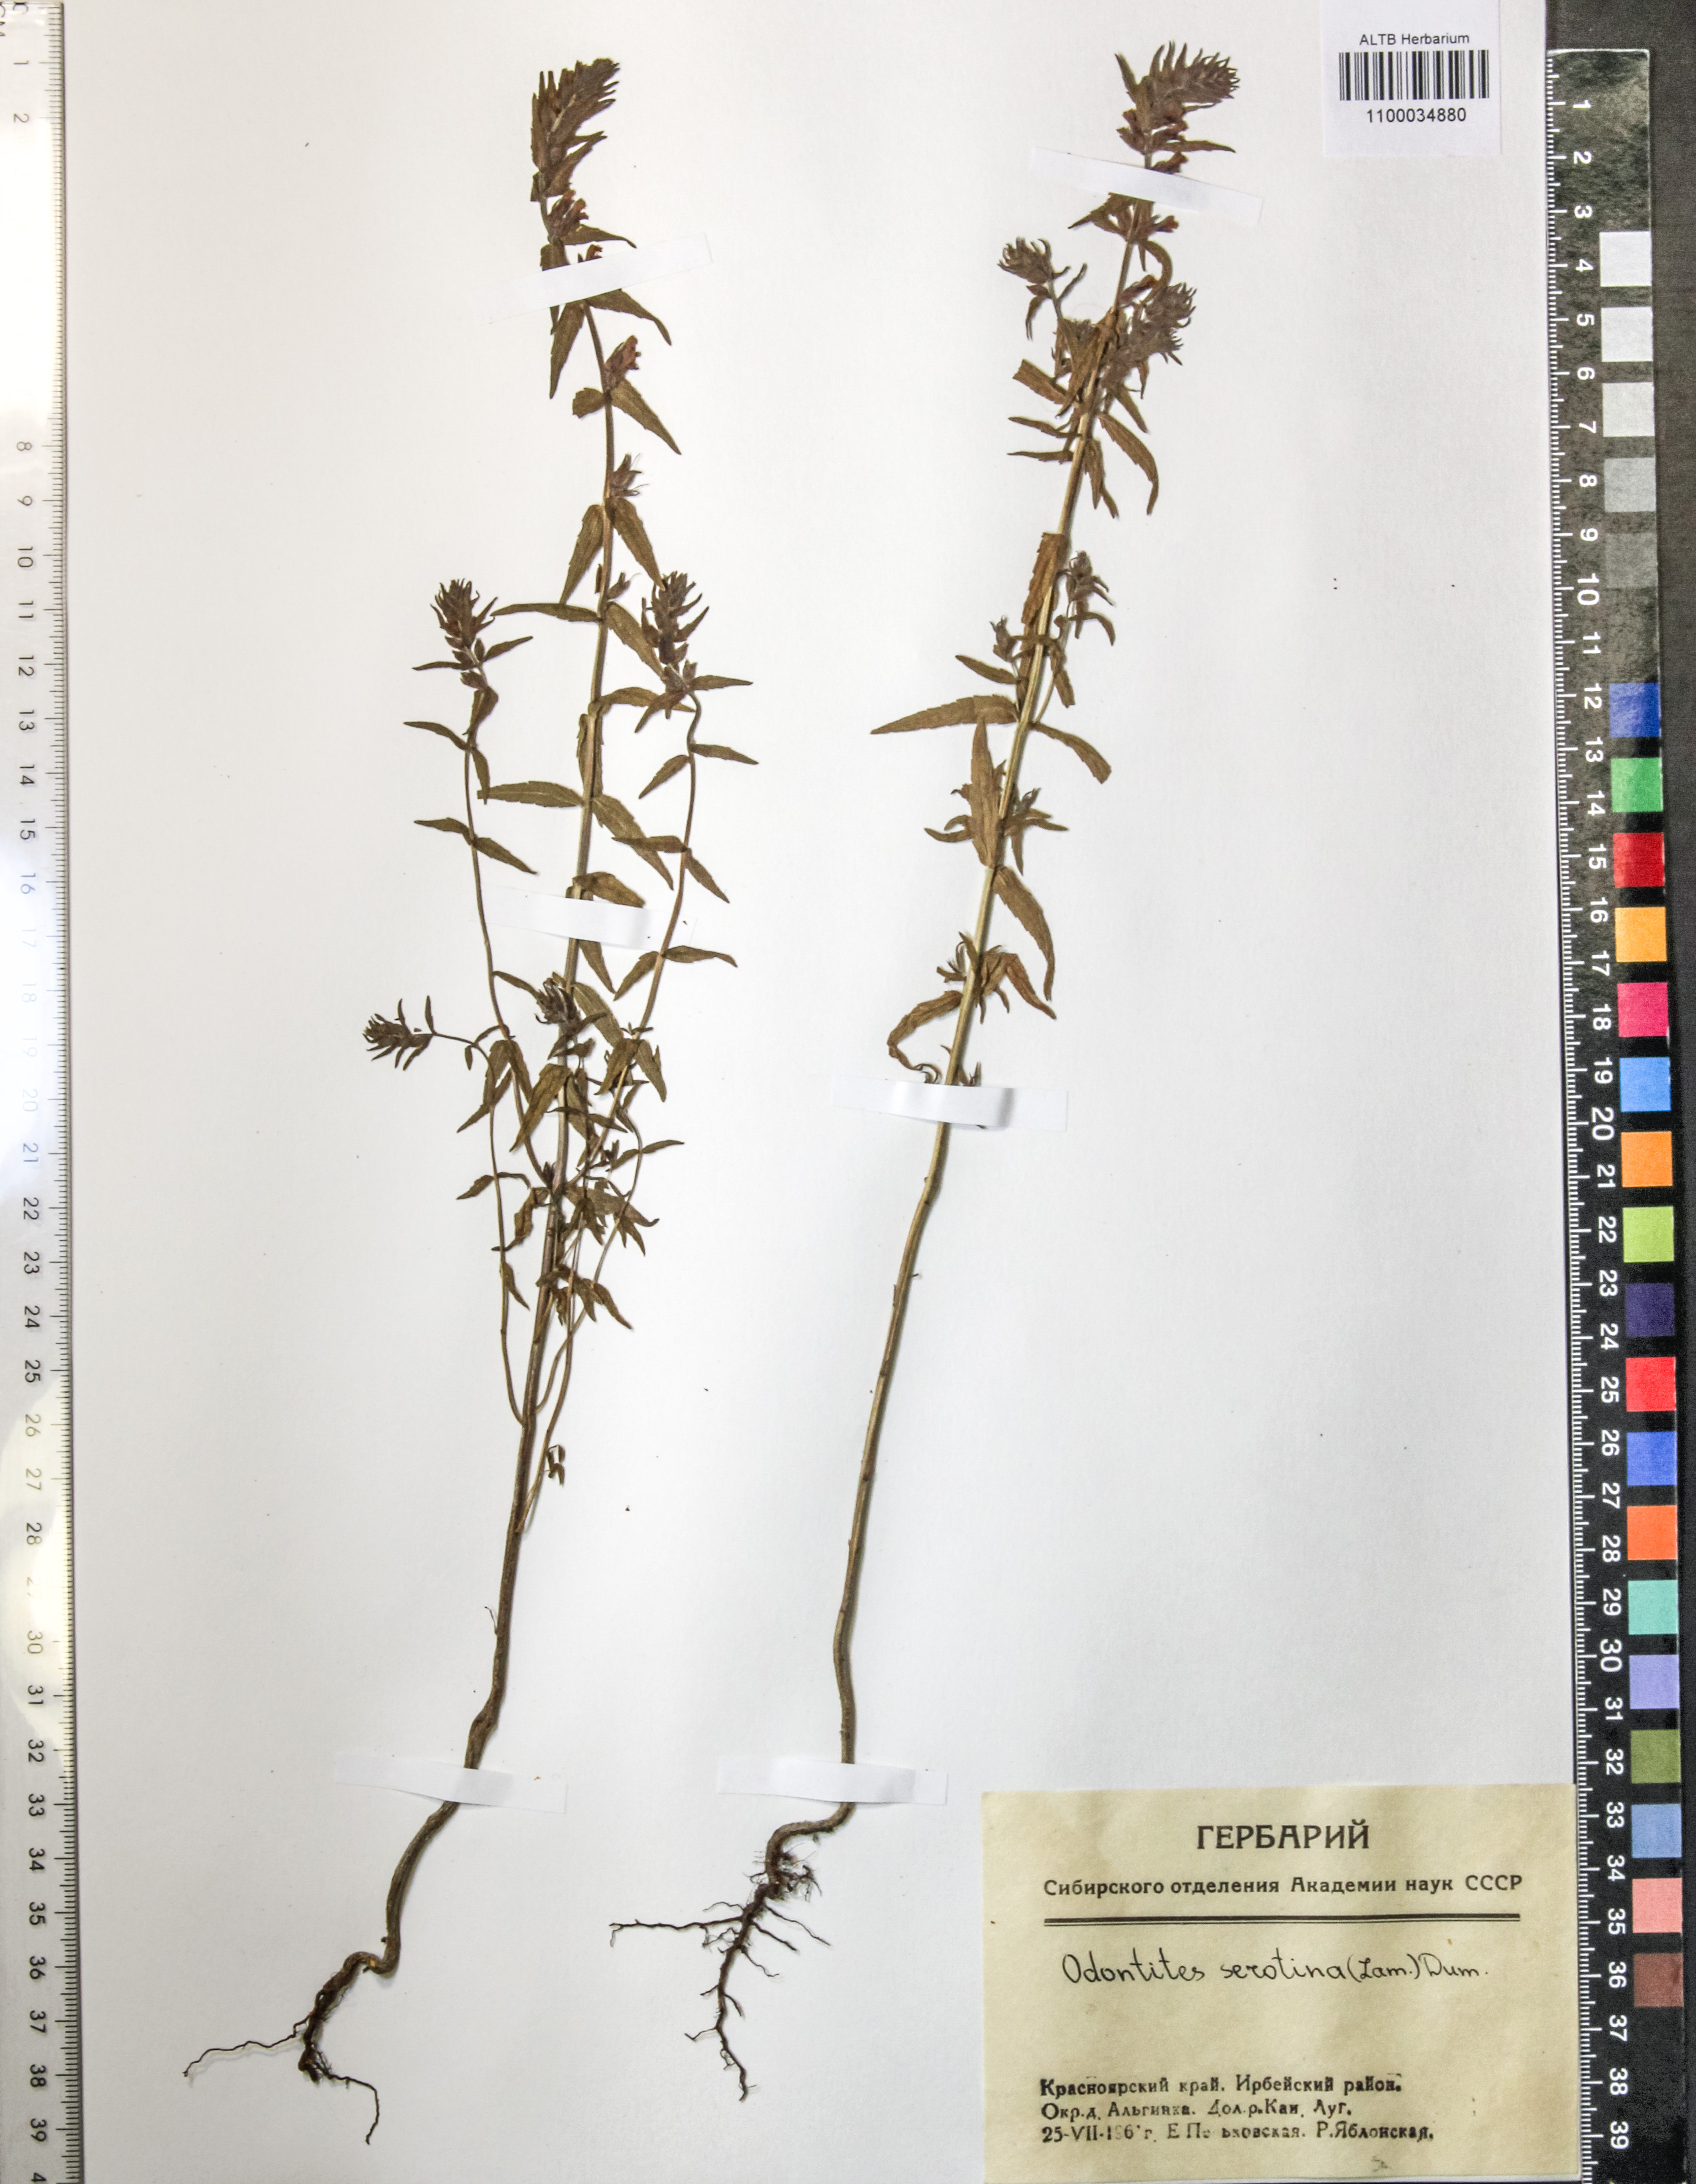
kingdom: Plantae
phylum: Tracheophyta
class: Magnoliopsida
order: Lamiales
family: Orobanchaceae
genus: Odontites
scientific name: Odontites vulgaris
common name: Broomrape
